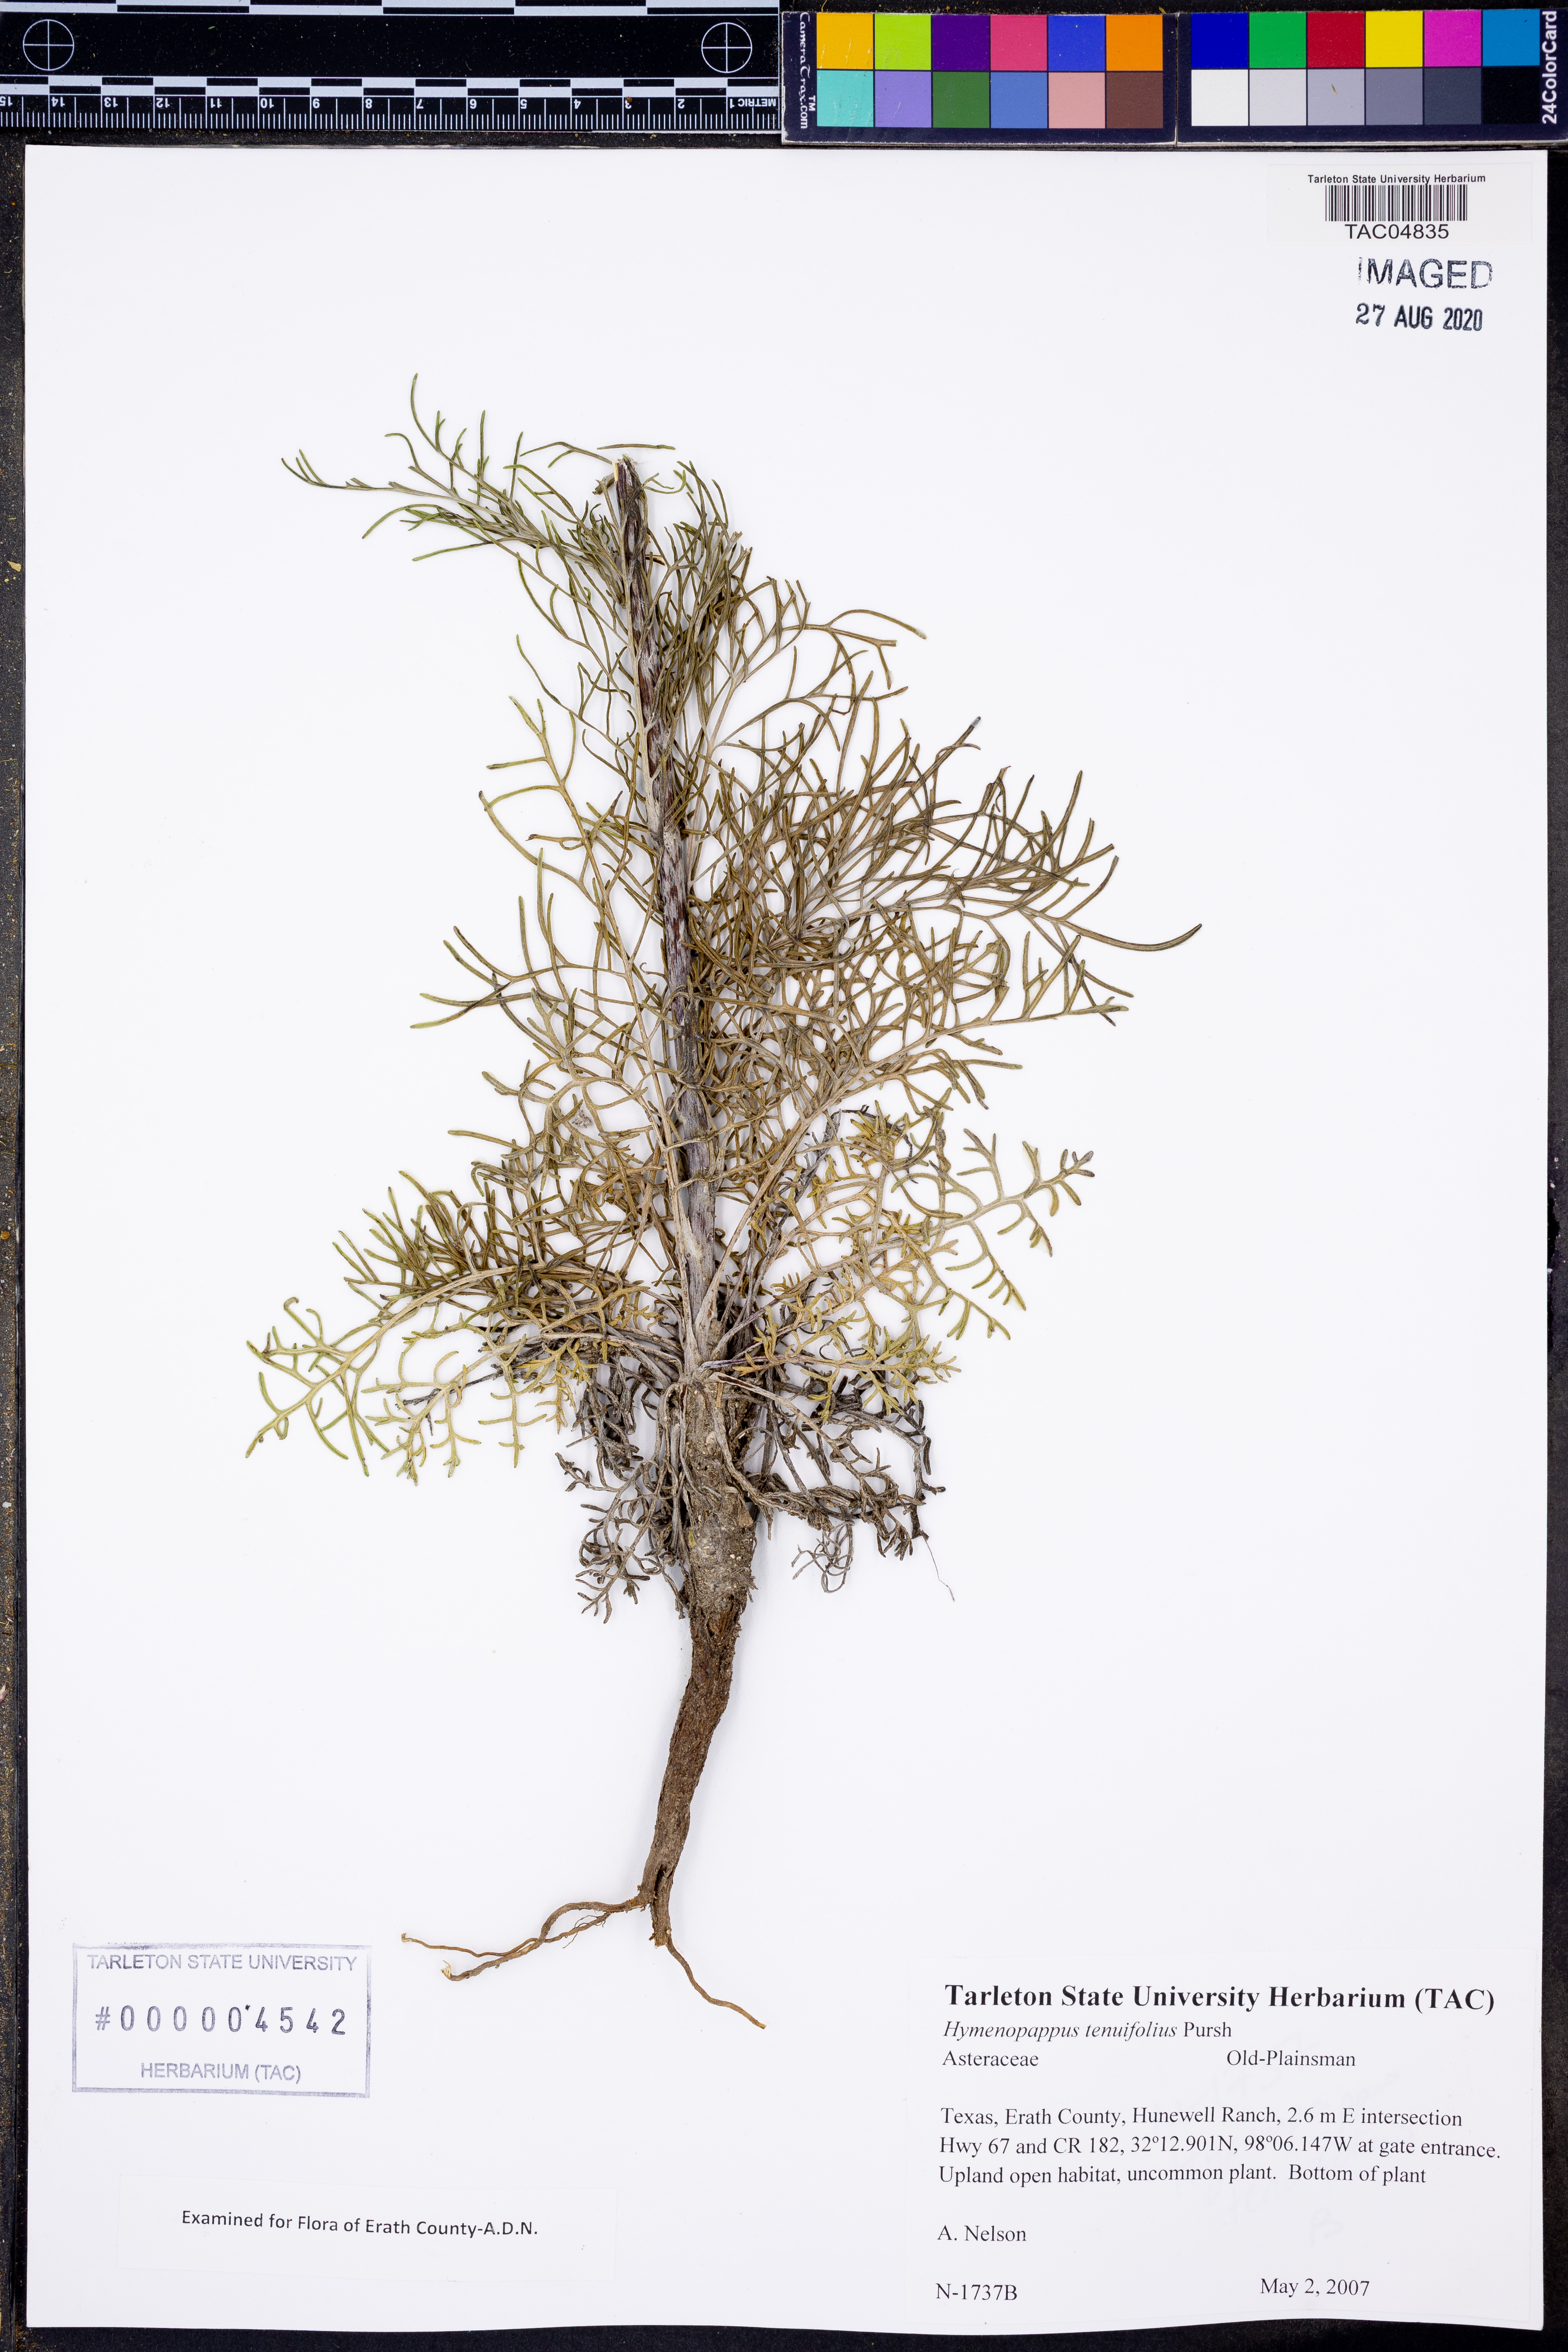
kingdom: Plantae
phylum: Tracheophyta
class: Magnoliopsida
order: Asterales
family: Asteraceae
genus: Hymenopappus
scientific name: Hymenopappus tenuifolius
